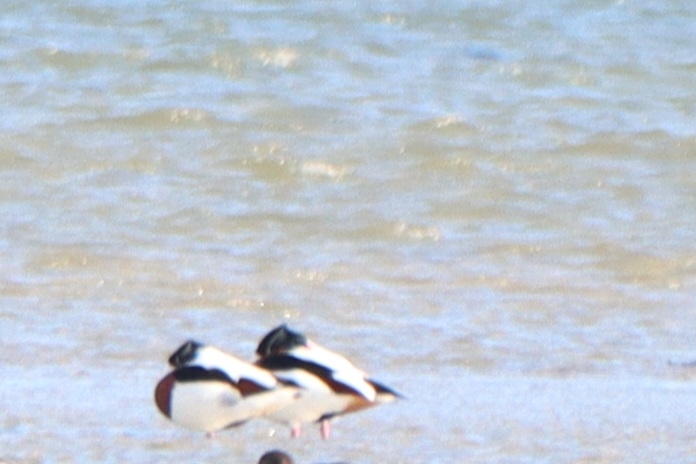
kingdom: Animalia
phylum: Chordata
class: Aves
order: Anseriformes
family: Anatidae
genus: Tadorna
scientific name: Tadorna tadorna
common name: Gravand
